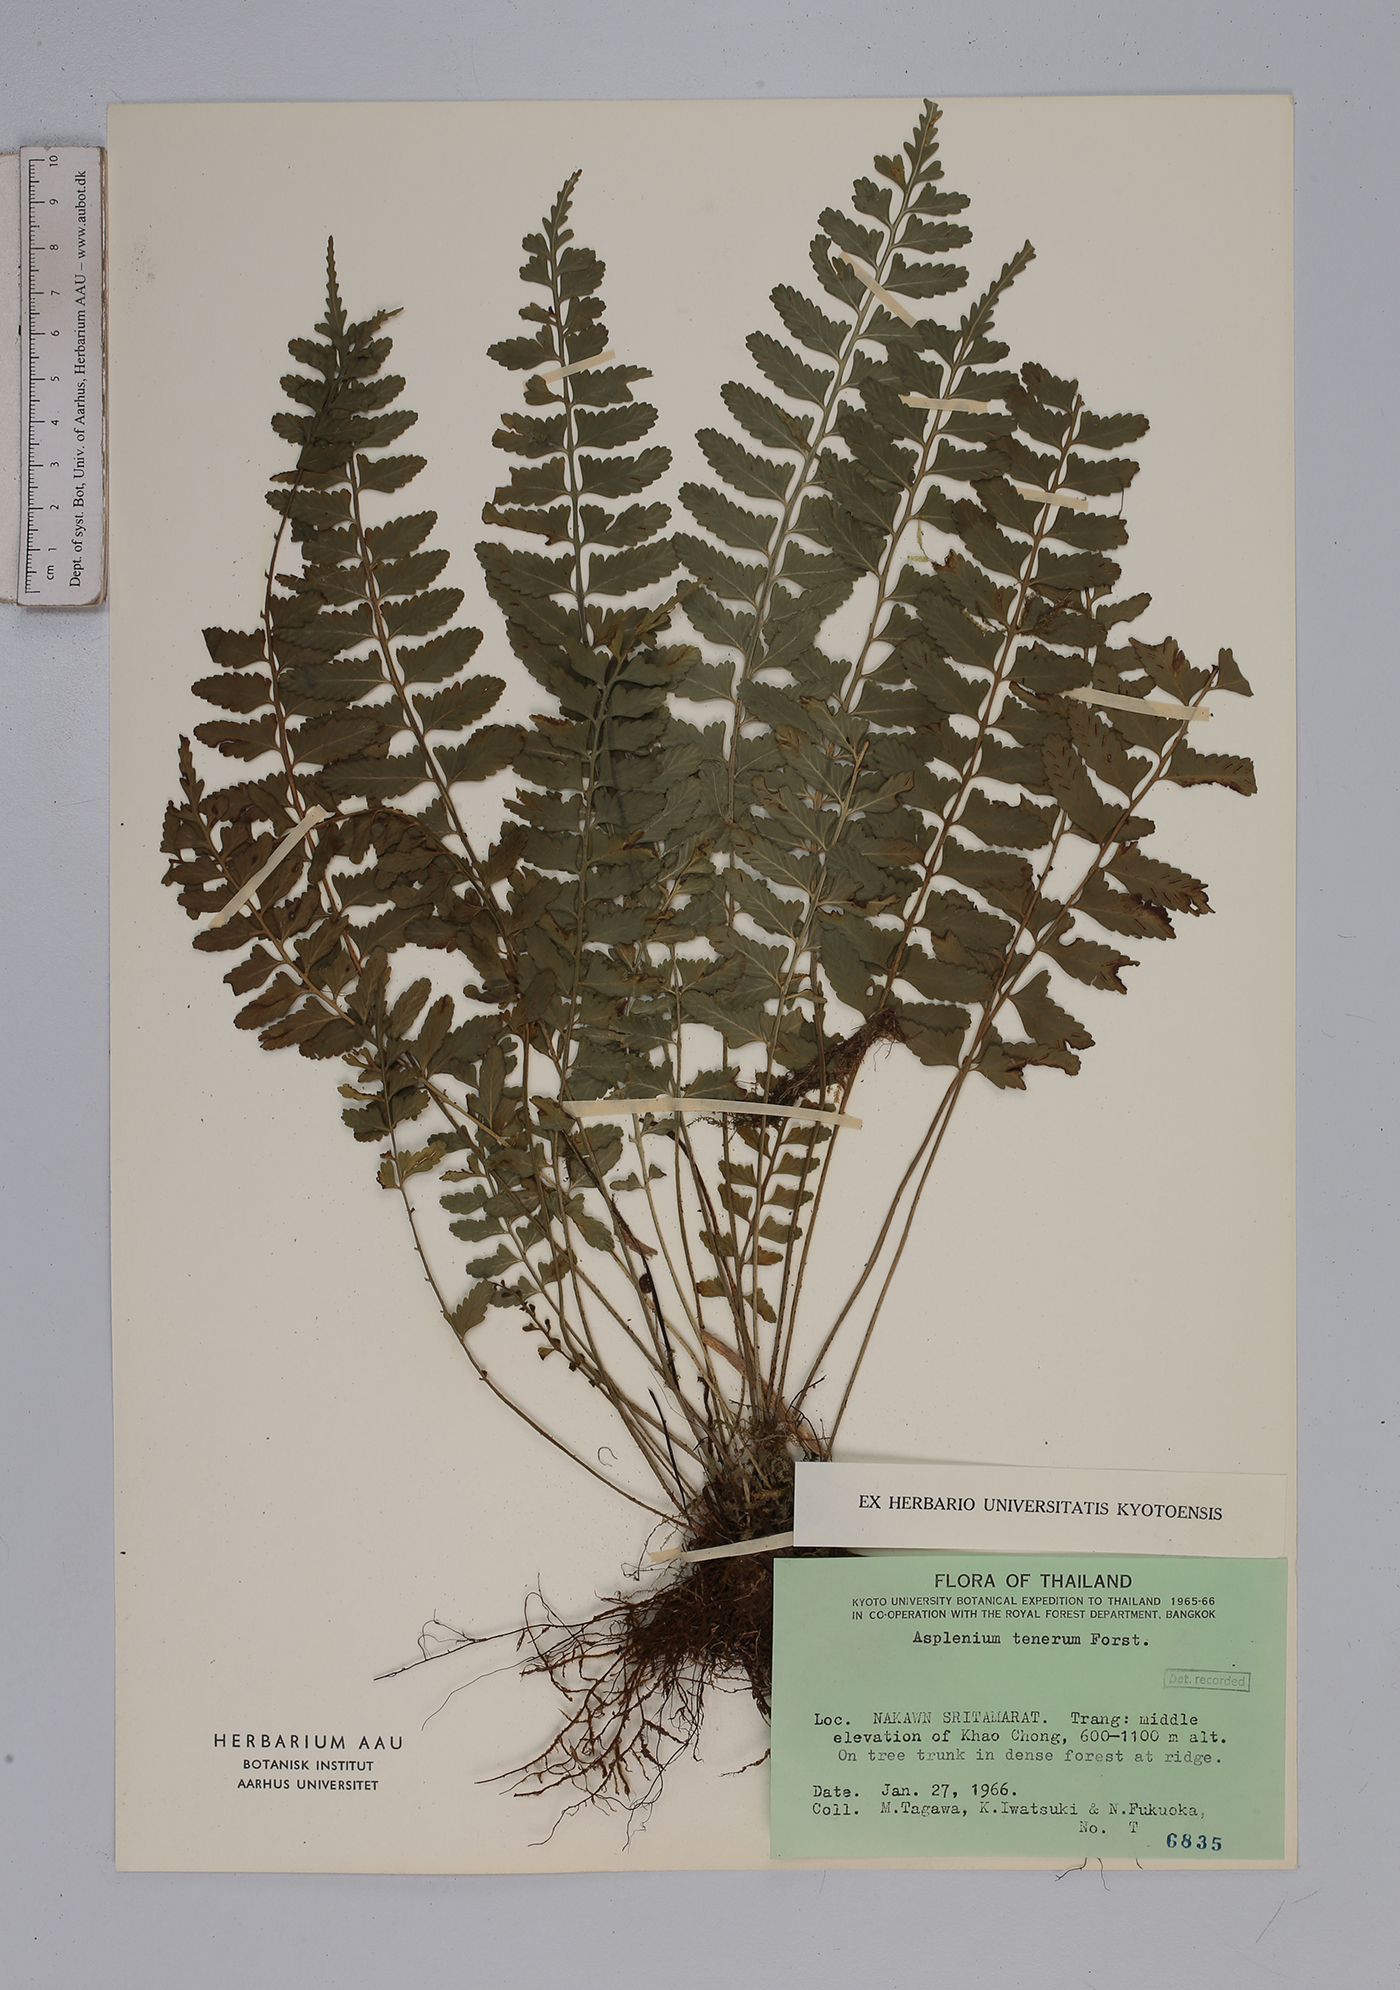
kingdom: Plantae
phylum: Tracheophyta
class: Polypodiopsida
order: Polypodiales
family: Aspleniaceae
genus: Asplenium
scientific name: Asplenium tenerum
